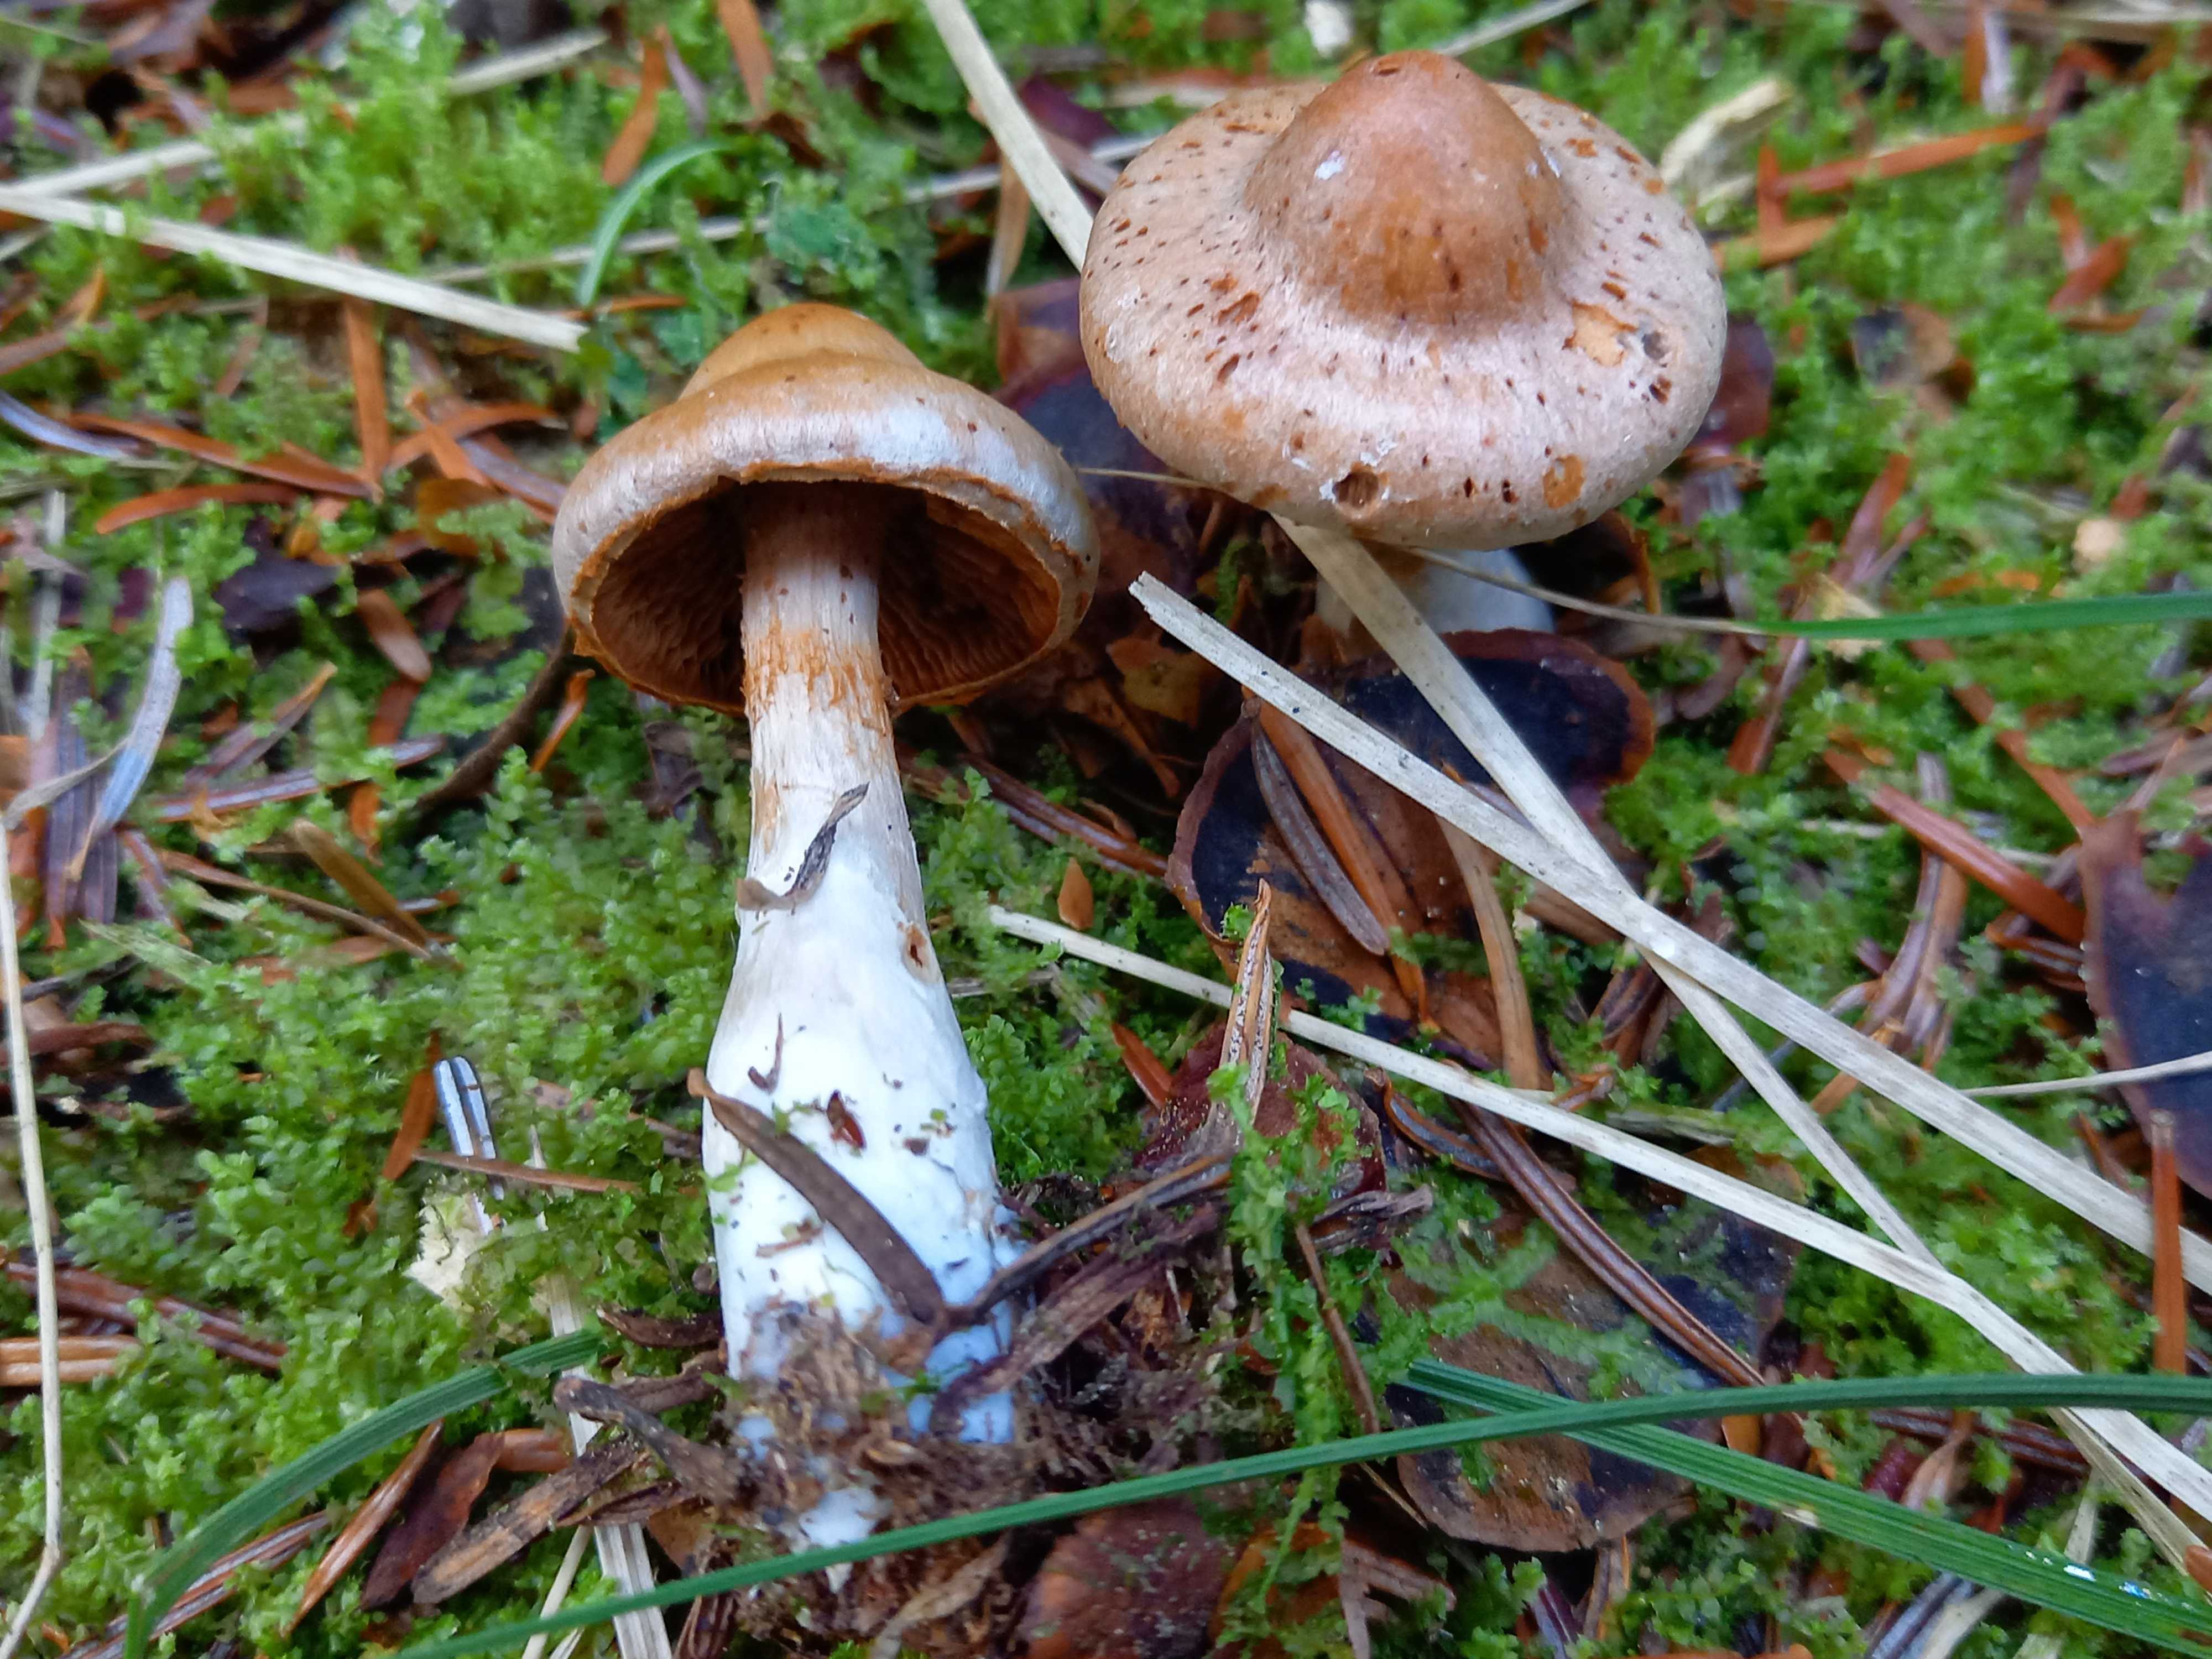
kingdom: Fungi
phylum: Basidiomycota
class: Agaricomycetes
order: Agaricales
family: Cortinariaceae
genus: Cortinarius
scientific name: Cortinarius
